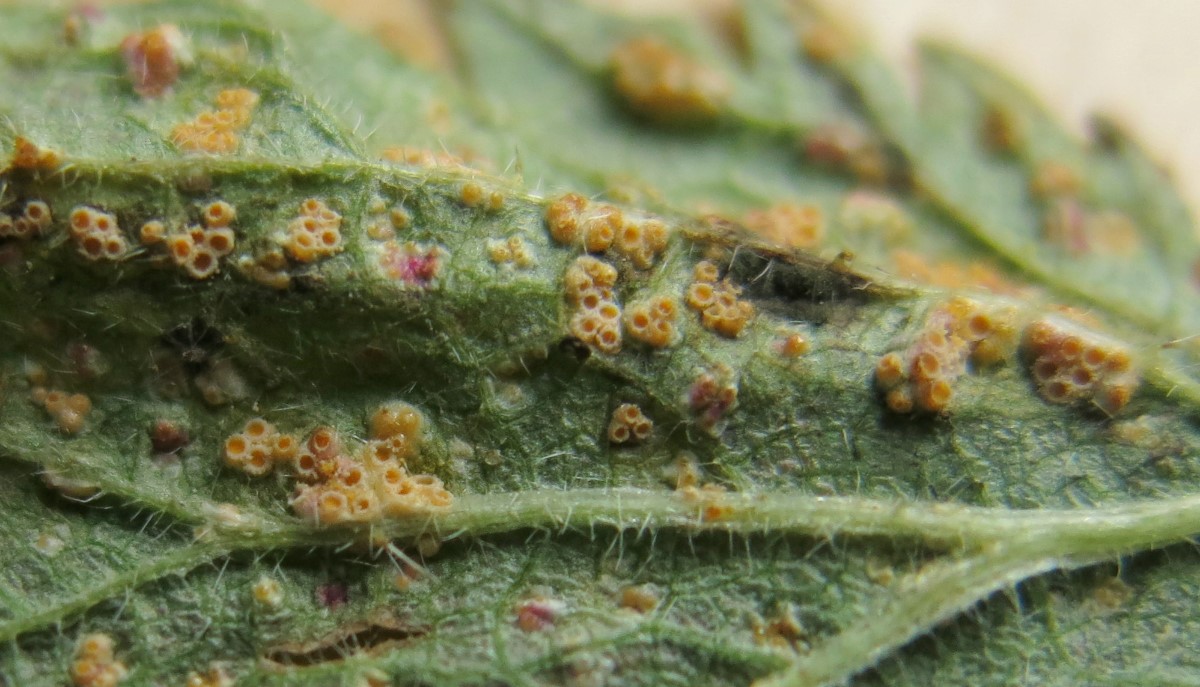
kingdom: Fungi
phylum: Basidiomycota
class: Pucciniomycetes
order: Pucciniales
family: Pucciniaceae
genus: Puccinia
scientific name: Puccinia urticata
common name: nældegalle-tvecellerust
